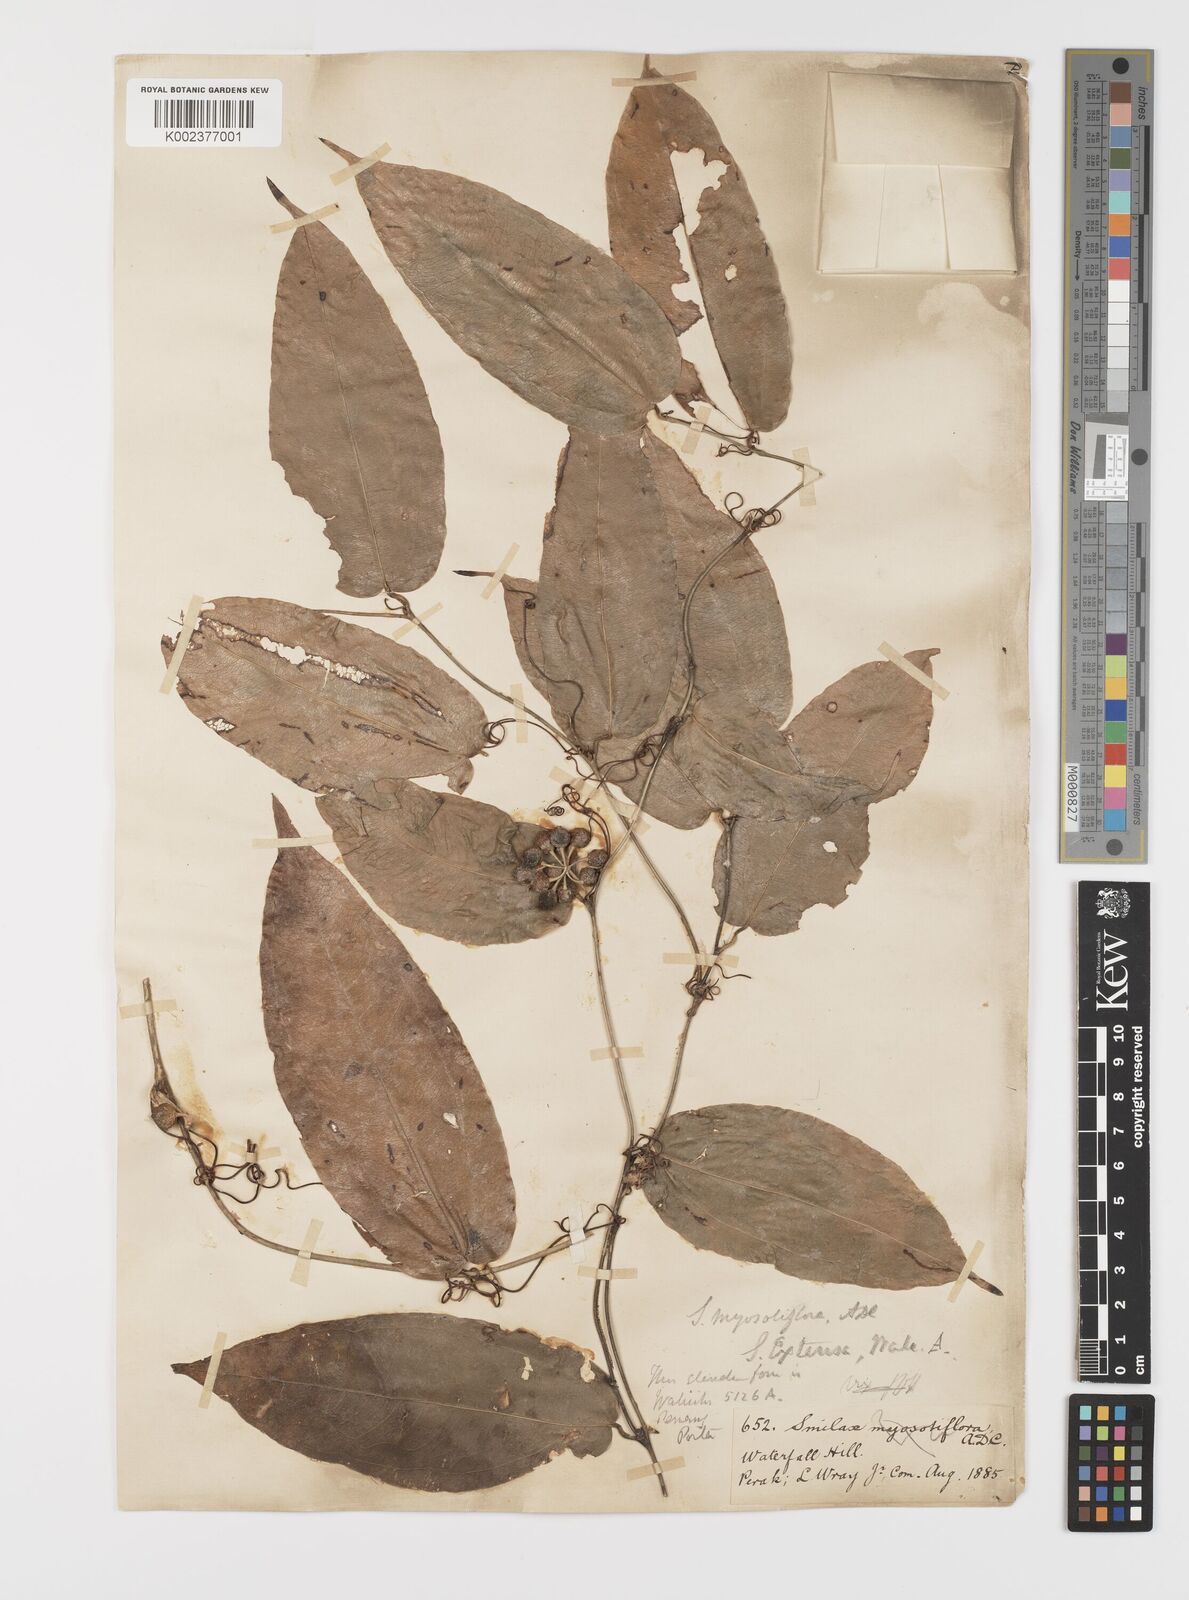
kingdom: Plantae
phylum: Tracheophyta
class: Liliopsida
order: Liliales
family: Smilacaceae
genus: Smilax
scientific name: Smilax myosotiflora
